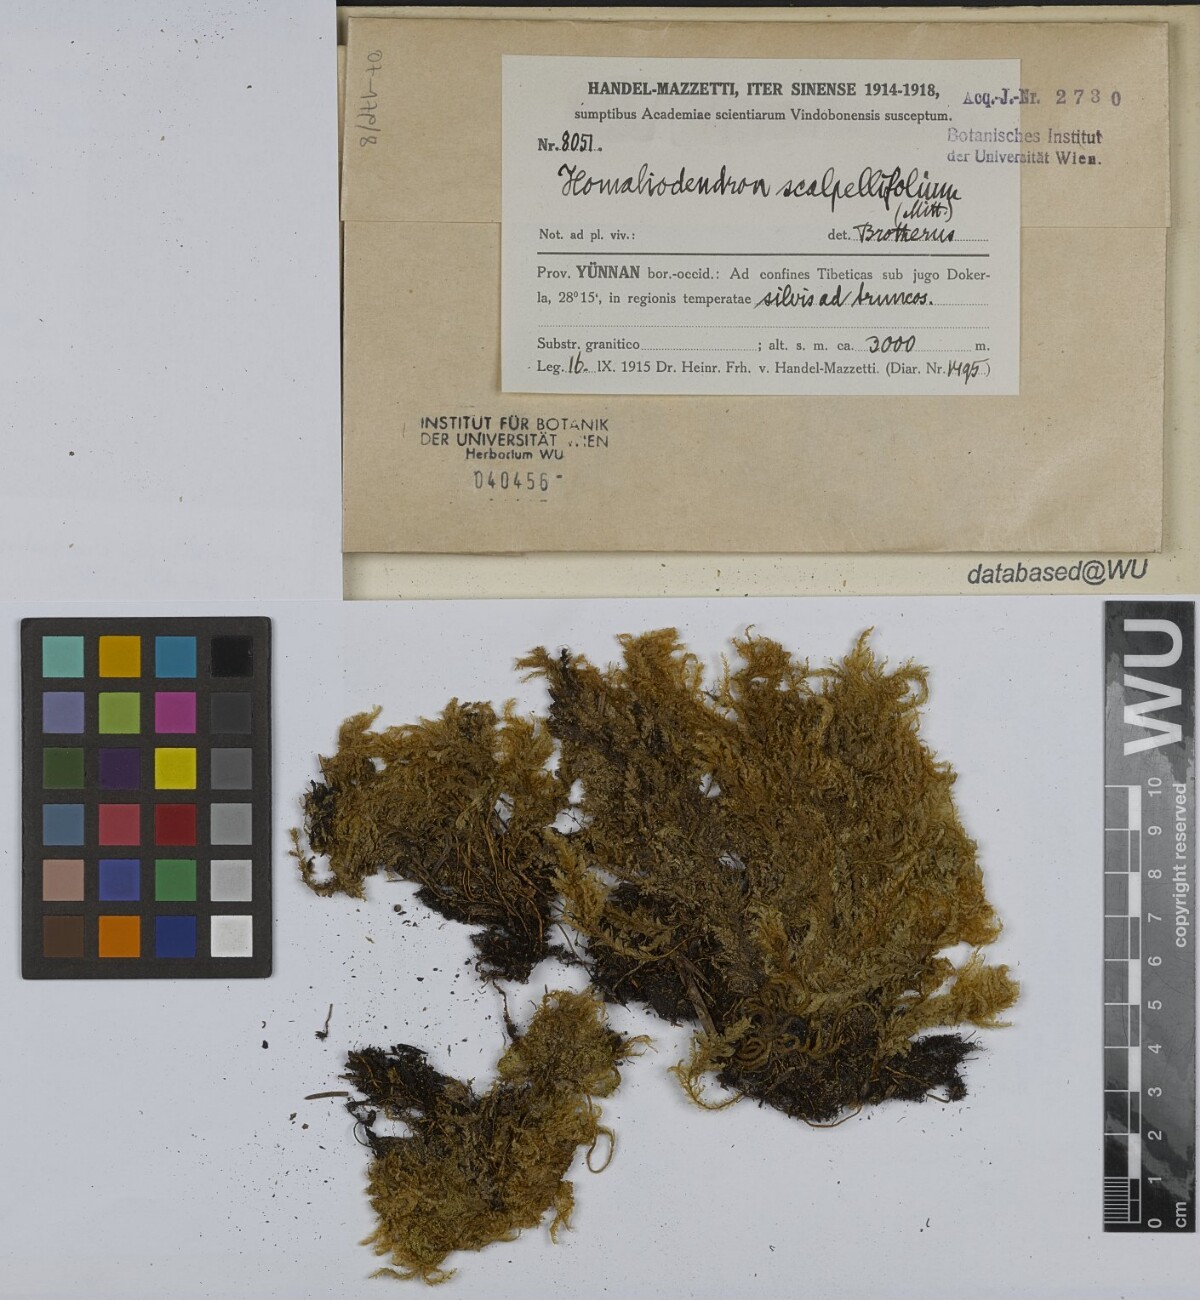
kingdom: Plantae
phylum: Bryophyta
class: Bryopsida
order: Hypnales
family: Neckeraceae
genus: Homaliodendron
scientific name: Homaliodendron flabellatum
